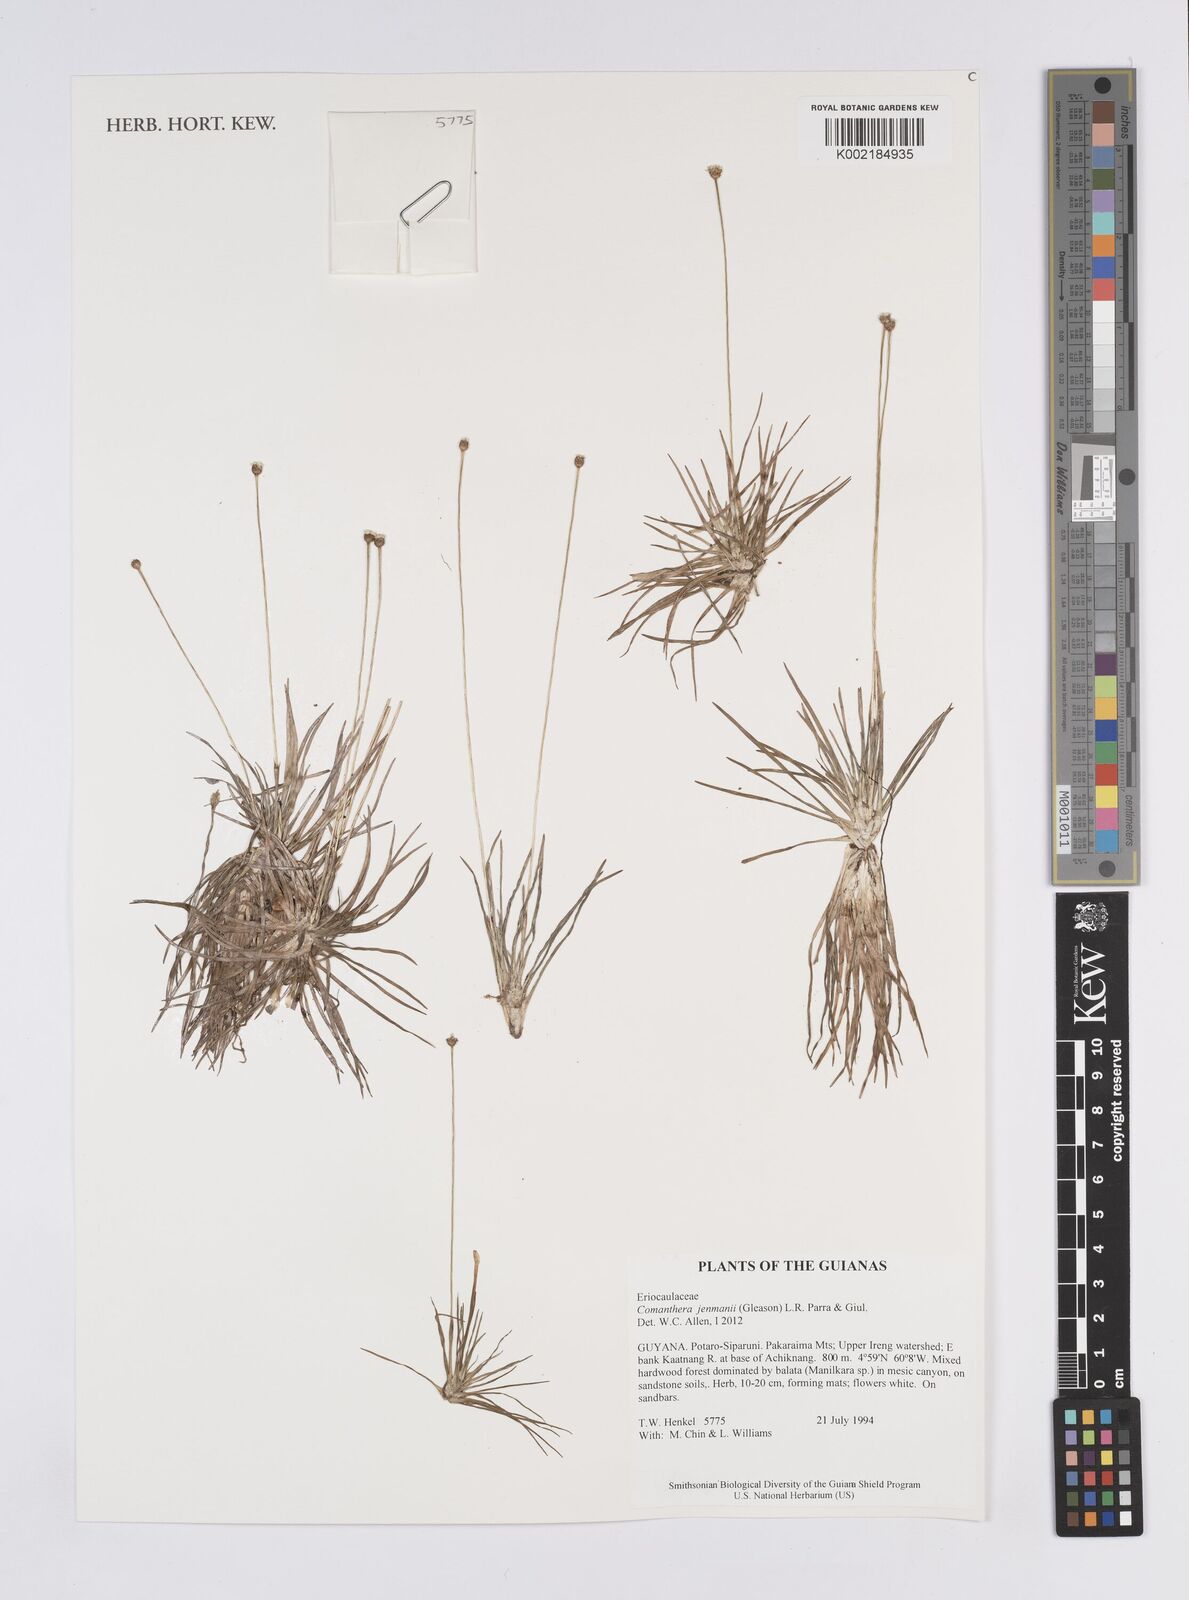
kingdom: Plantae
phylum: Tracheophyta
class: Liliopsida
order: Poales
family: Eriocaulaceae
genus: Comanthera
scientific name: Comanthera jenmanii
